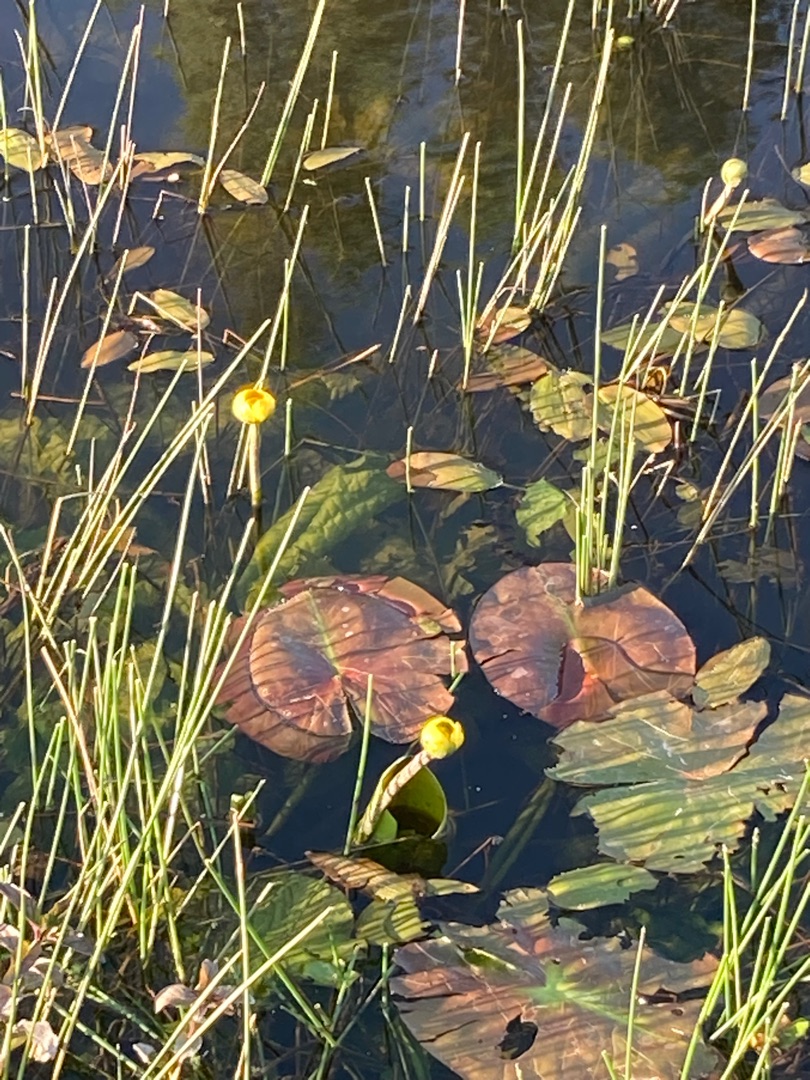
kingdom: Plantae
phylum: Tracheophyta
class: Magnoliopsida
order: Nymphaeales
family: Nymphaeaceae
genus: Nuphar
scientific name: Nuphar lutea
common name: Gul åkande
